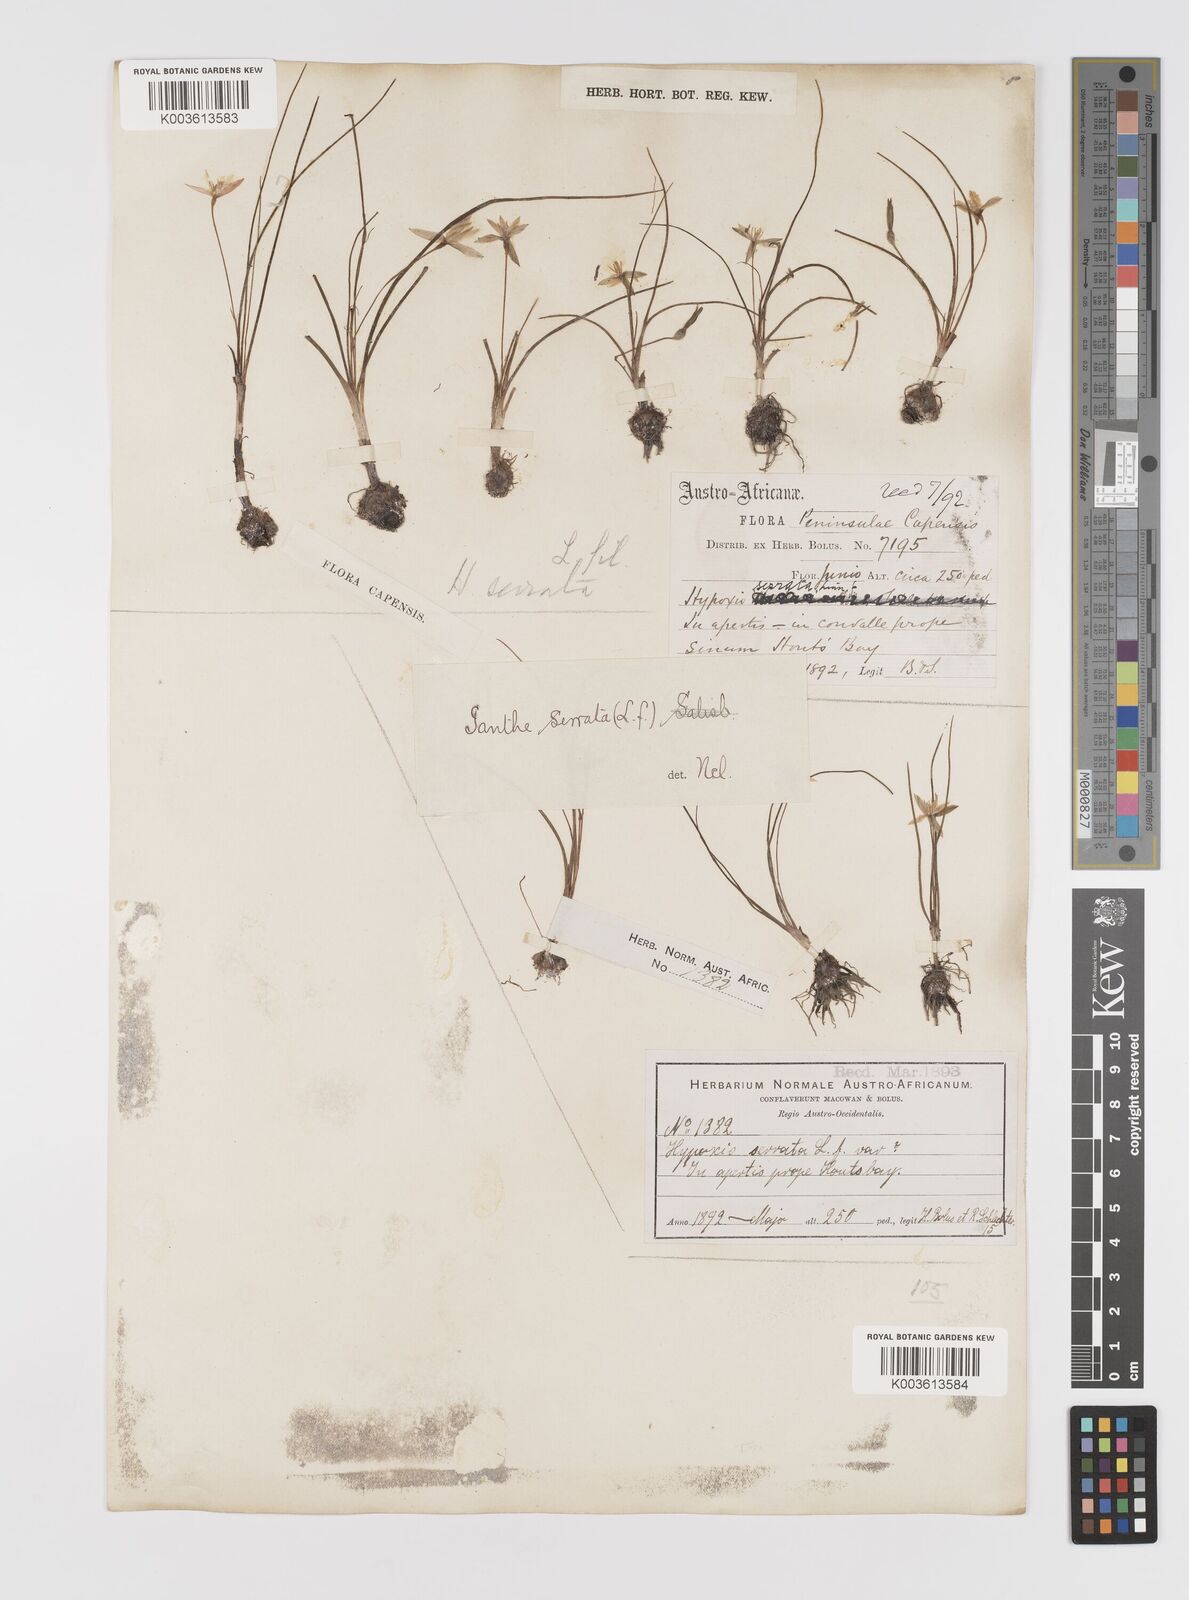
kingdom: Plantae
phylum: Tracheophyta
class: Liliopsida
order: Asparagales
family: Hypoxidaceae
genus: Pauridia
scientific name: Pauridia serrata
